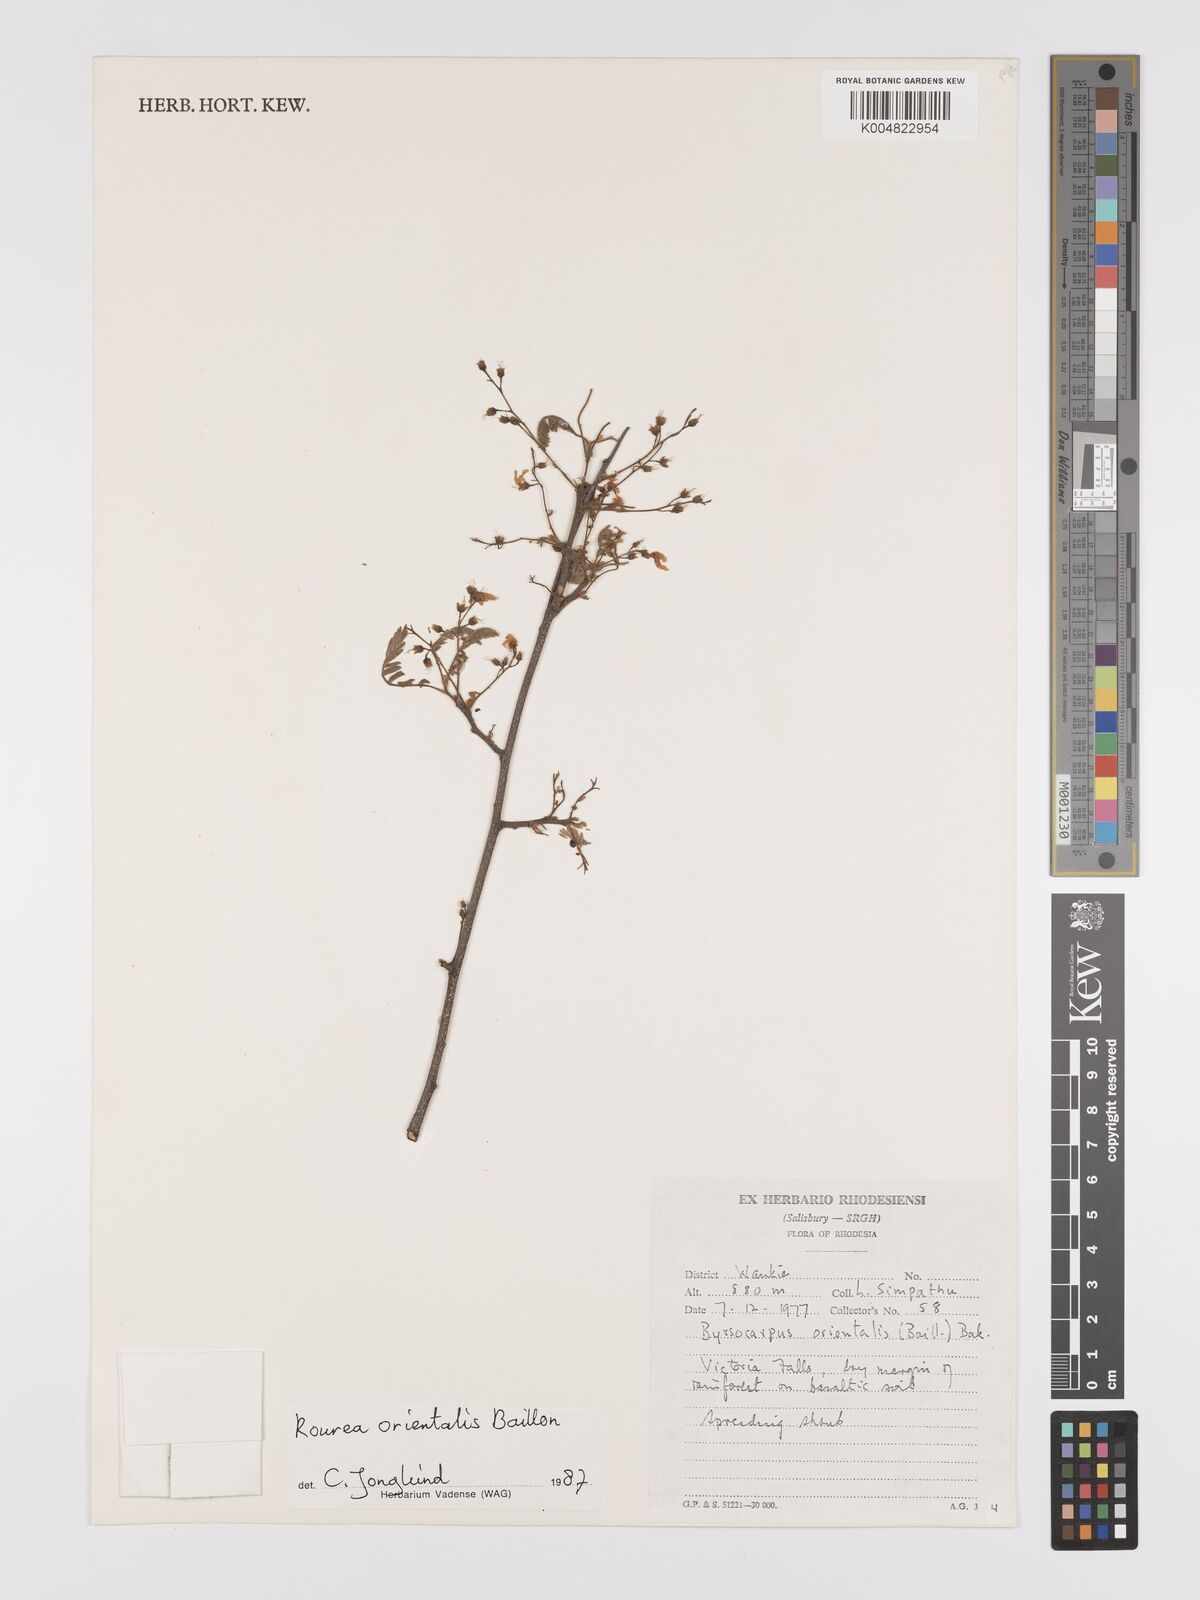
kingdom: Plantae
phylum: Tracheophyta
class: Magnoliopsida
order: Oxalidales
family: Connaraceae
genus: Rourea
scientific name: Rourea orientalis
